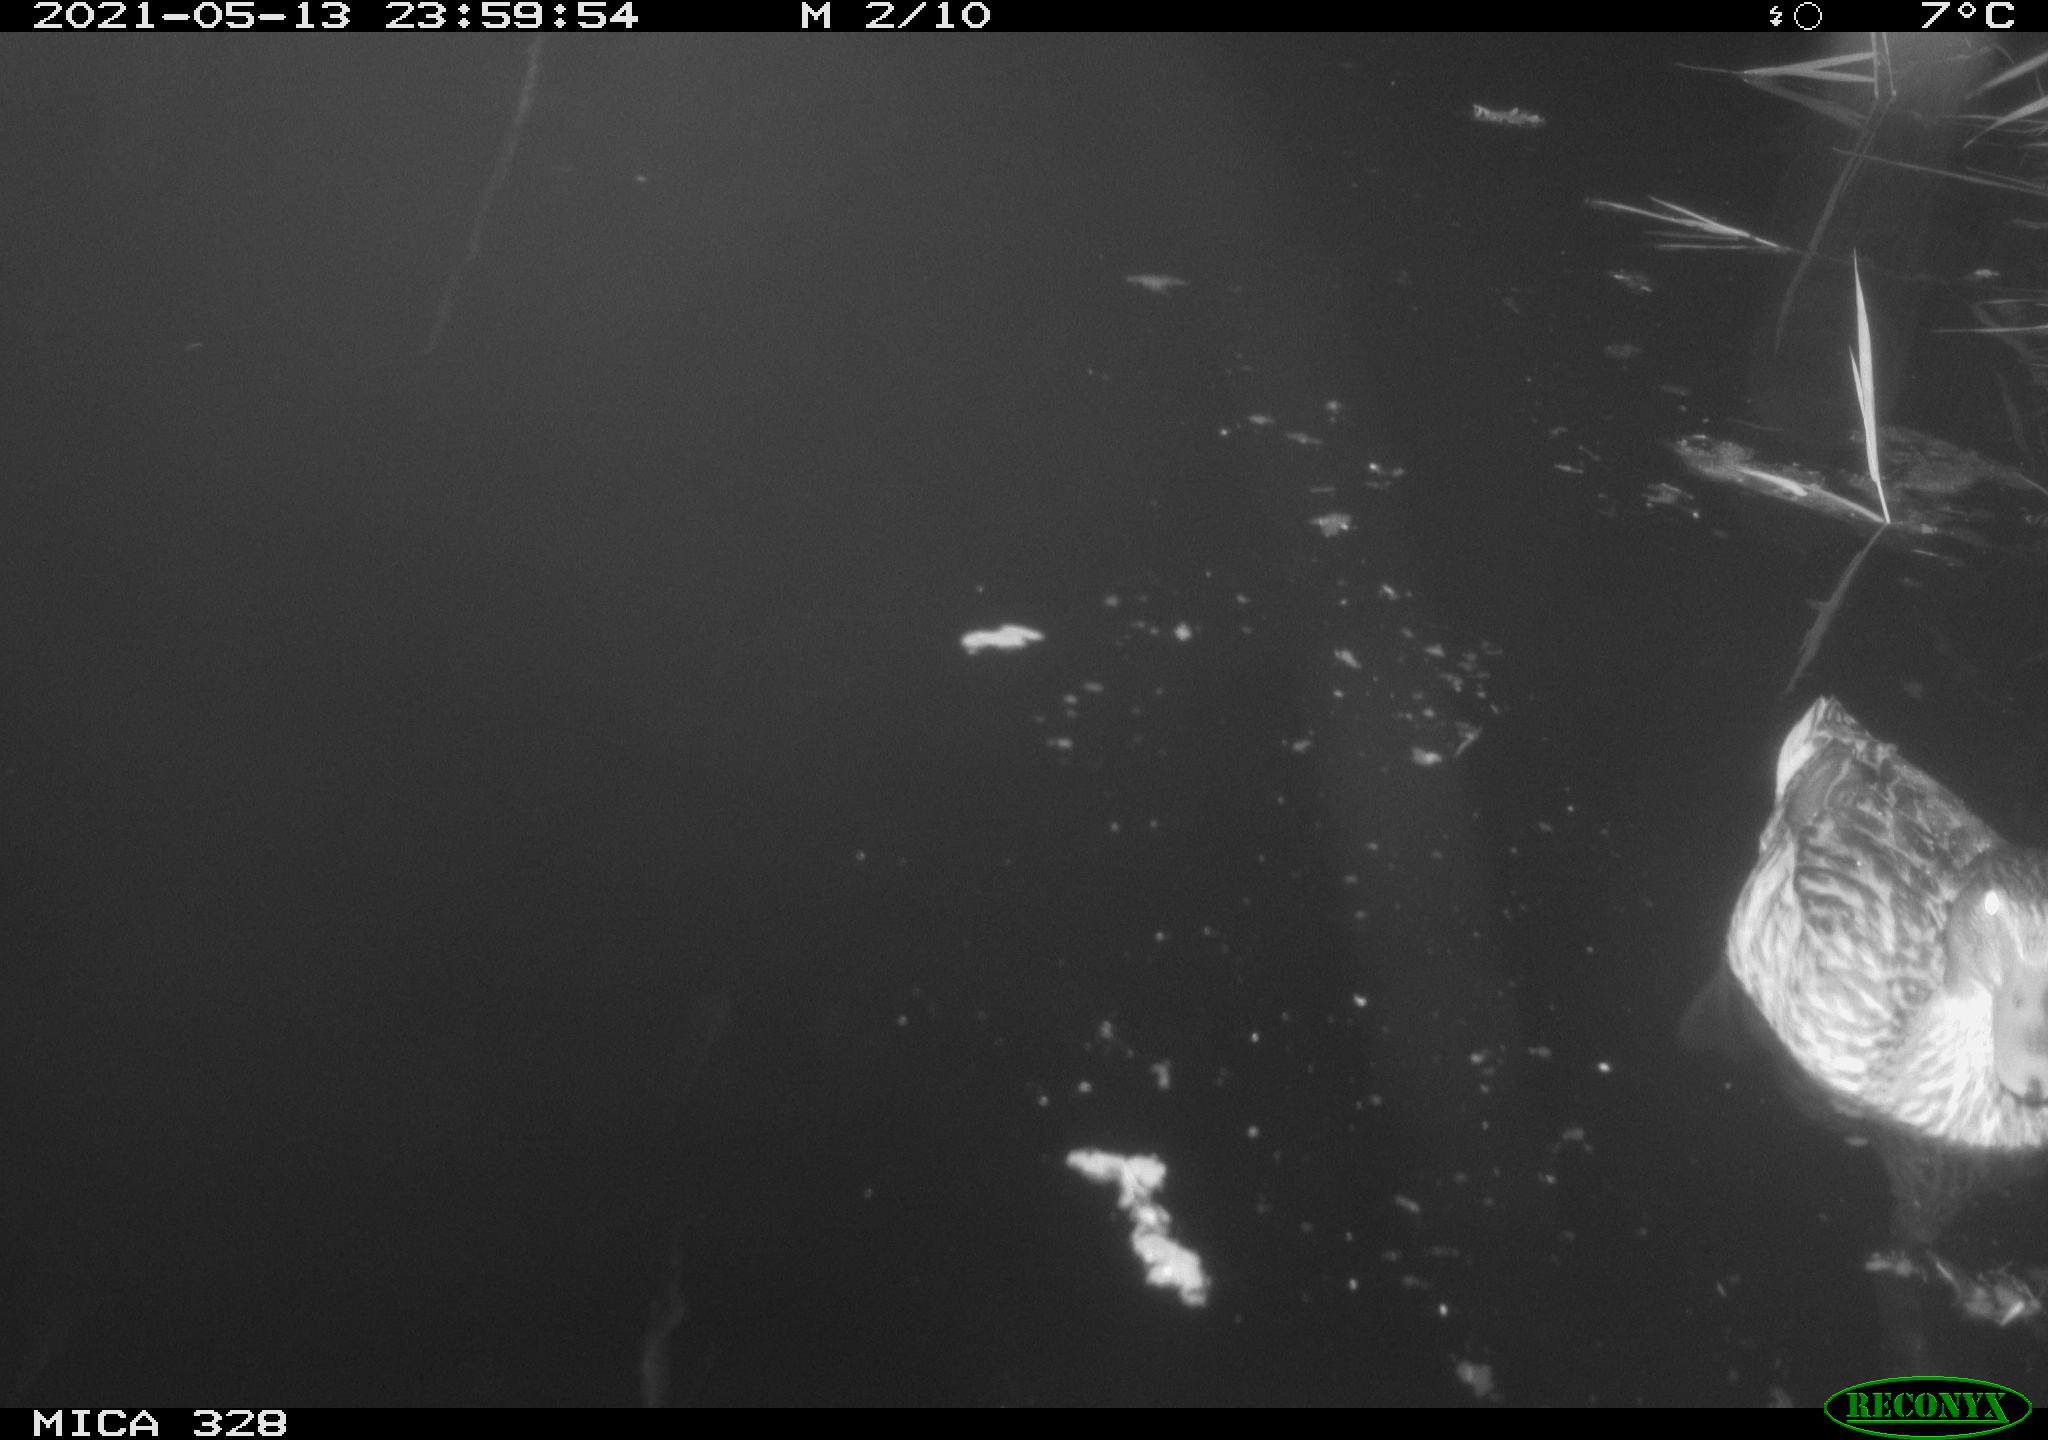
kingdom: Animalia
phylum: Chordata
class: Aves
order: Anseriformes
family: Anatidae
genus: Anas
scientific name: Anas platyrhynchos
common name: Mallard
